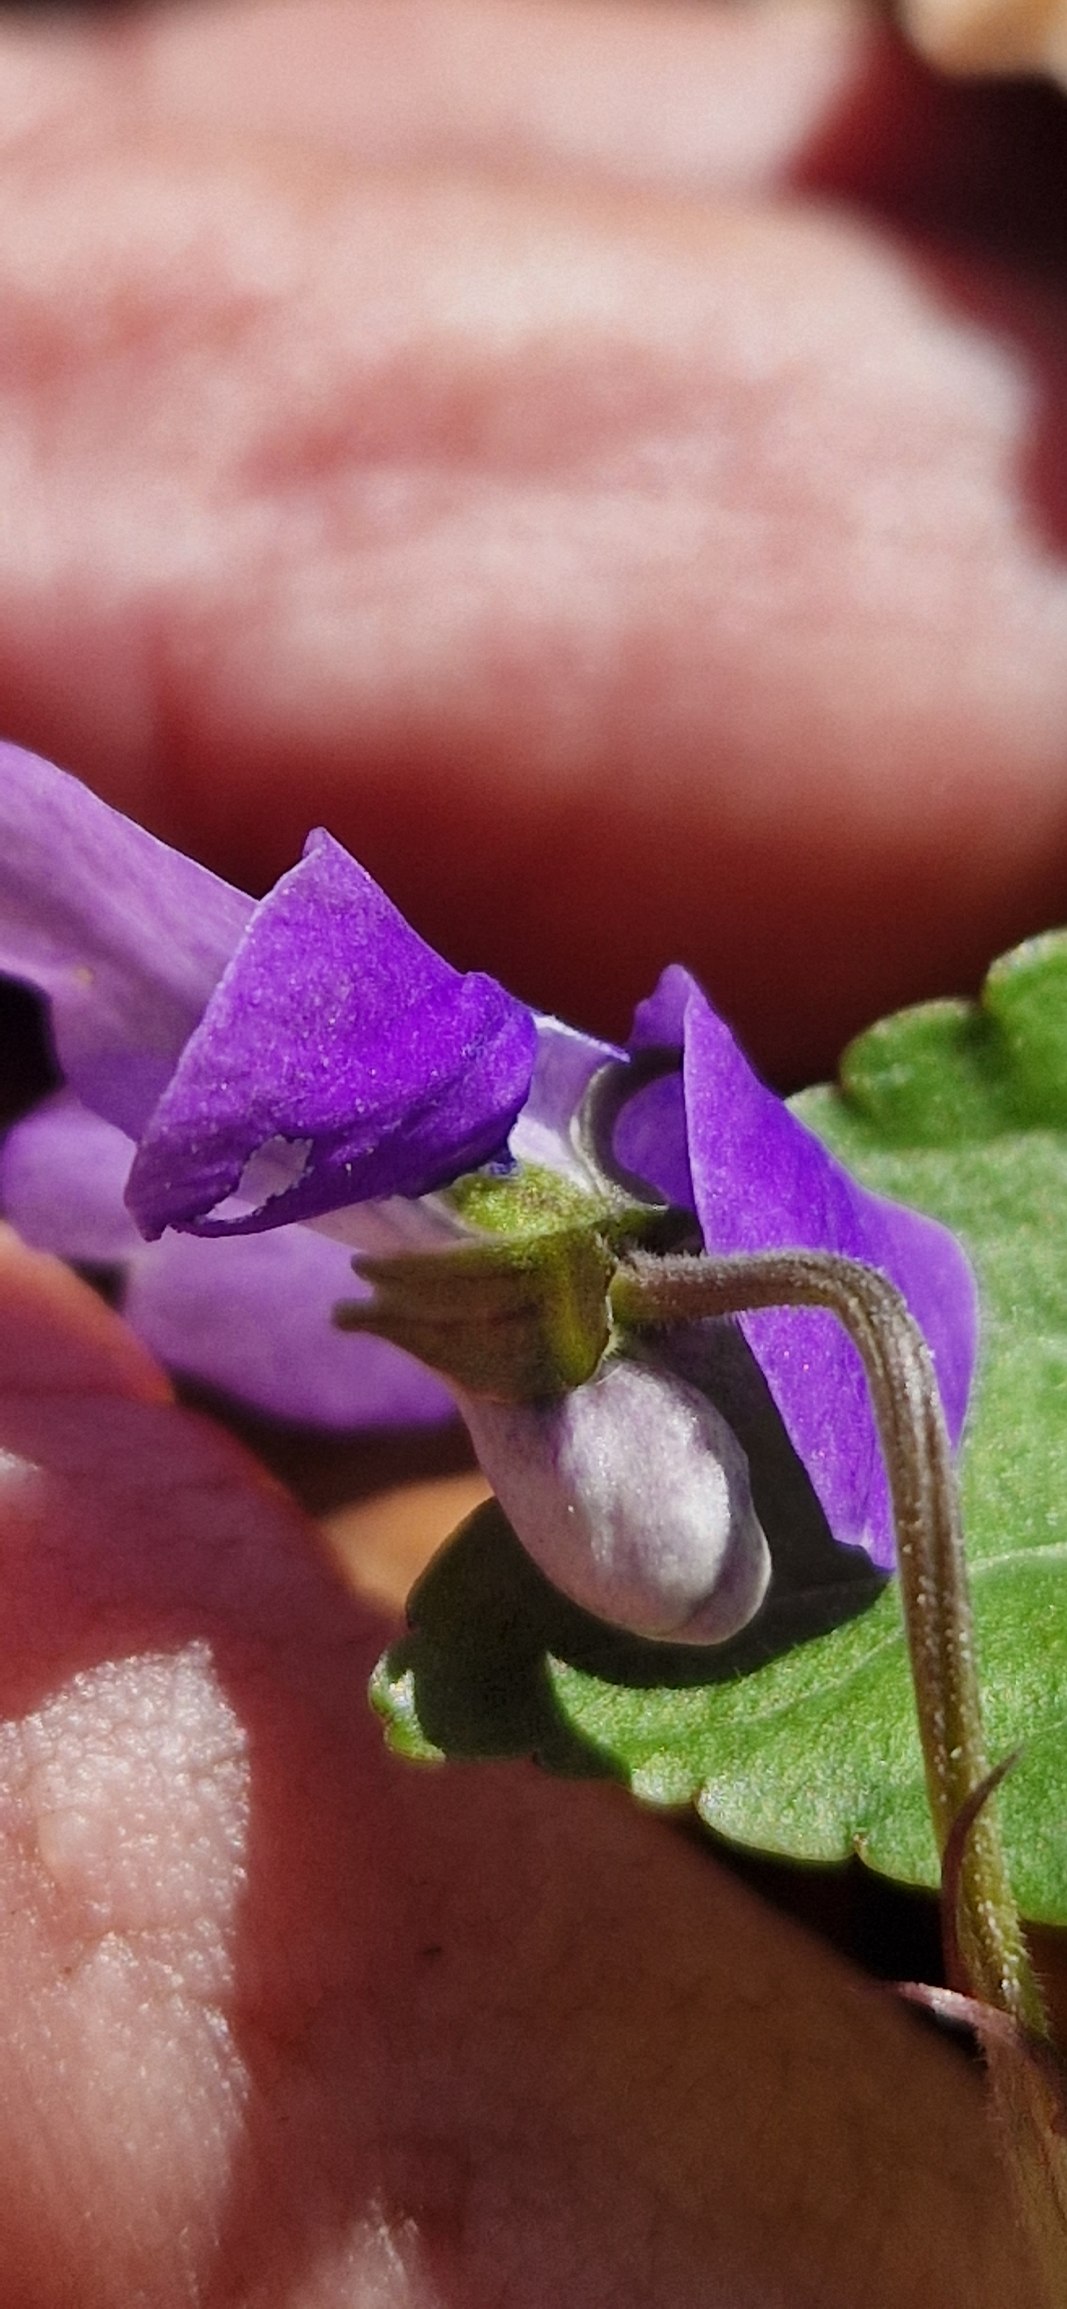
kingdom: Plantae
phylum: Tracheophyta
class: Magnoliopsida
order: Malpighiales
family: Violaceae
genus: Viola
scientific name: Viola riviniana
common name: Krat-viol
